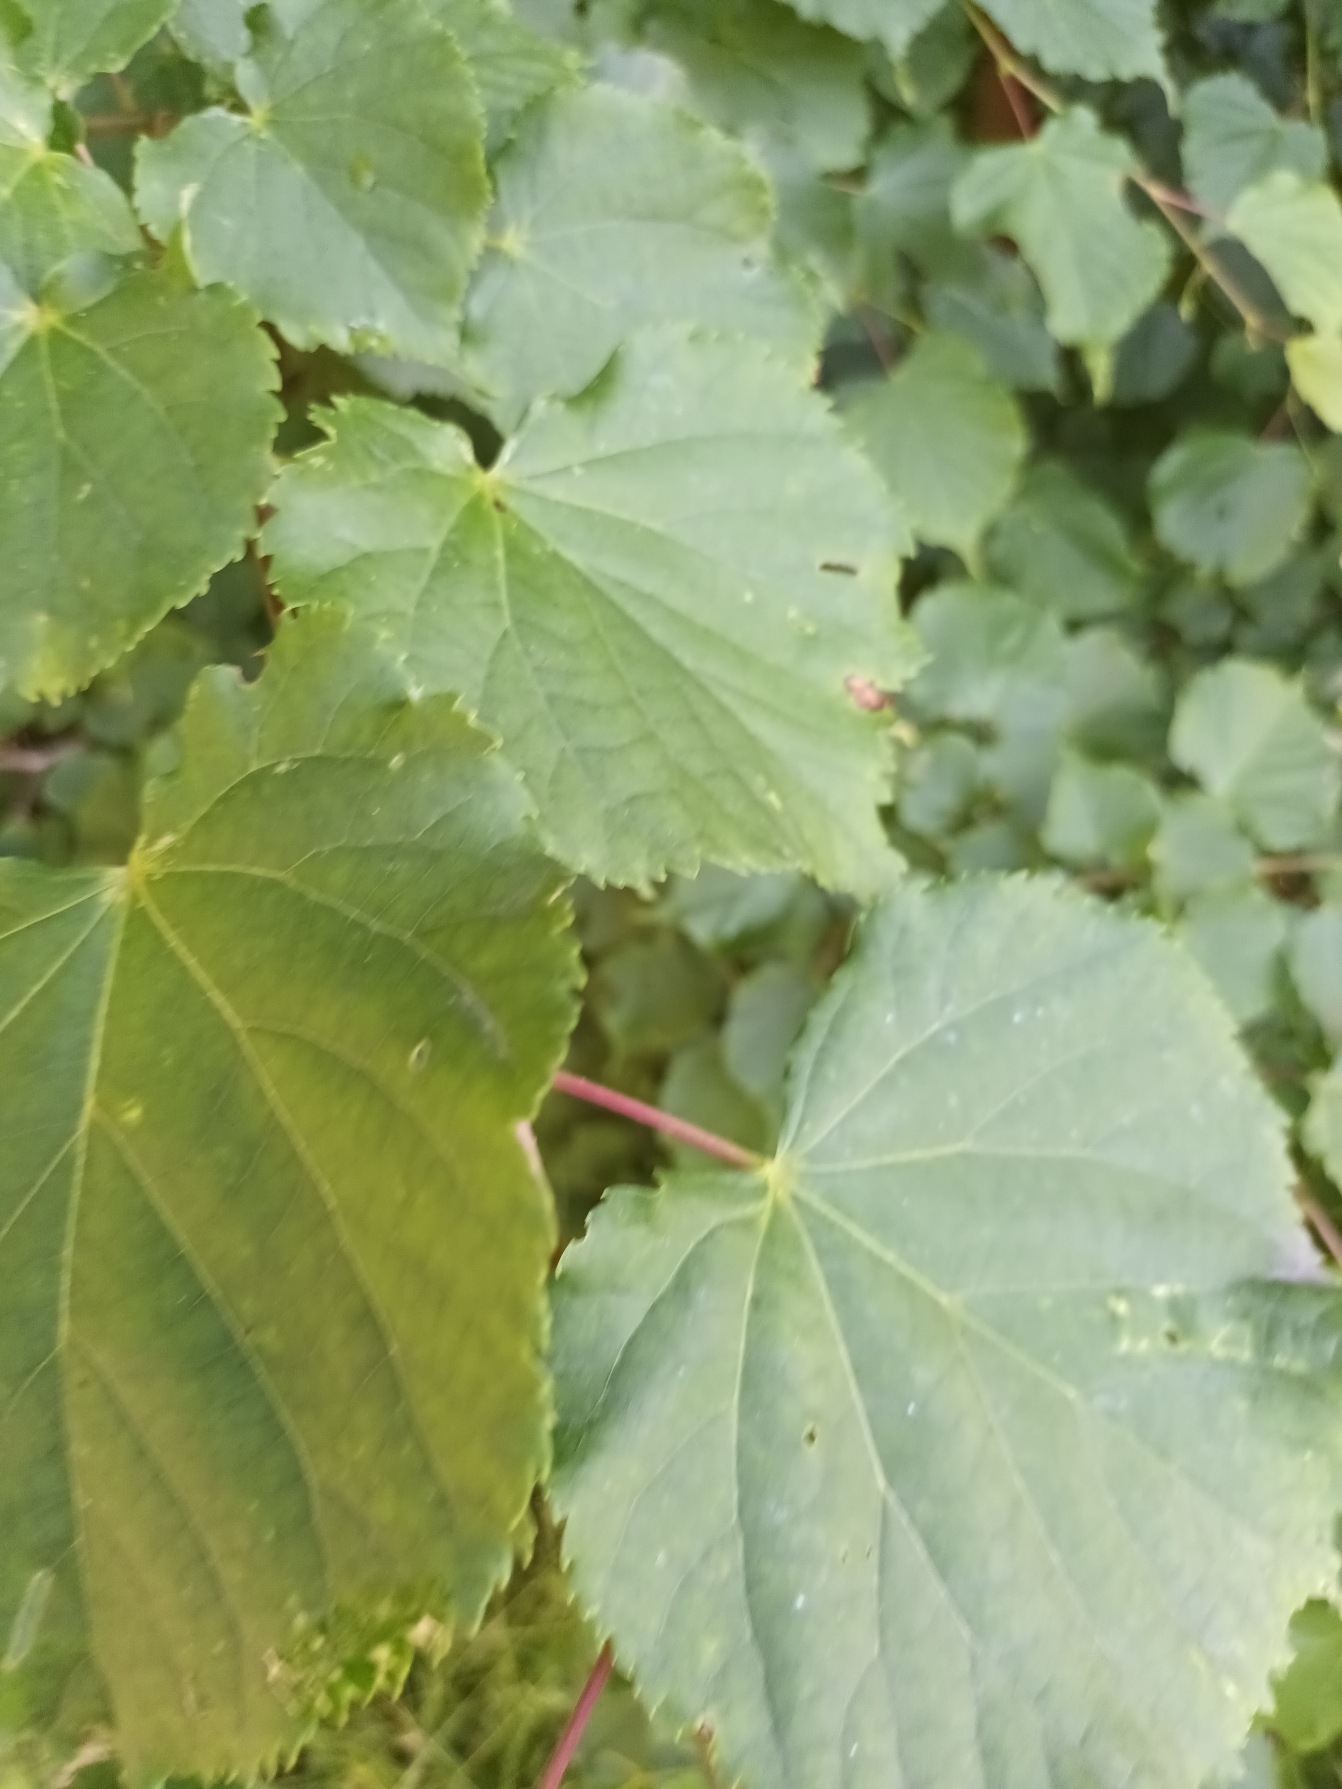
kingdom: Plantae
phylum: Tracheophyta
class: Magnoliopsida
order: Malvales
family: Malvaceae
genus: Tilia
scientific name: Tilia cordata
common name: Småbladet lind
